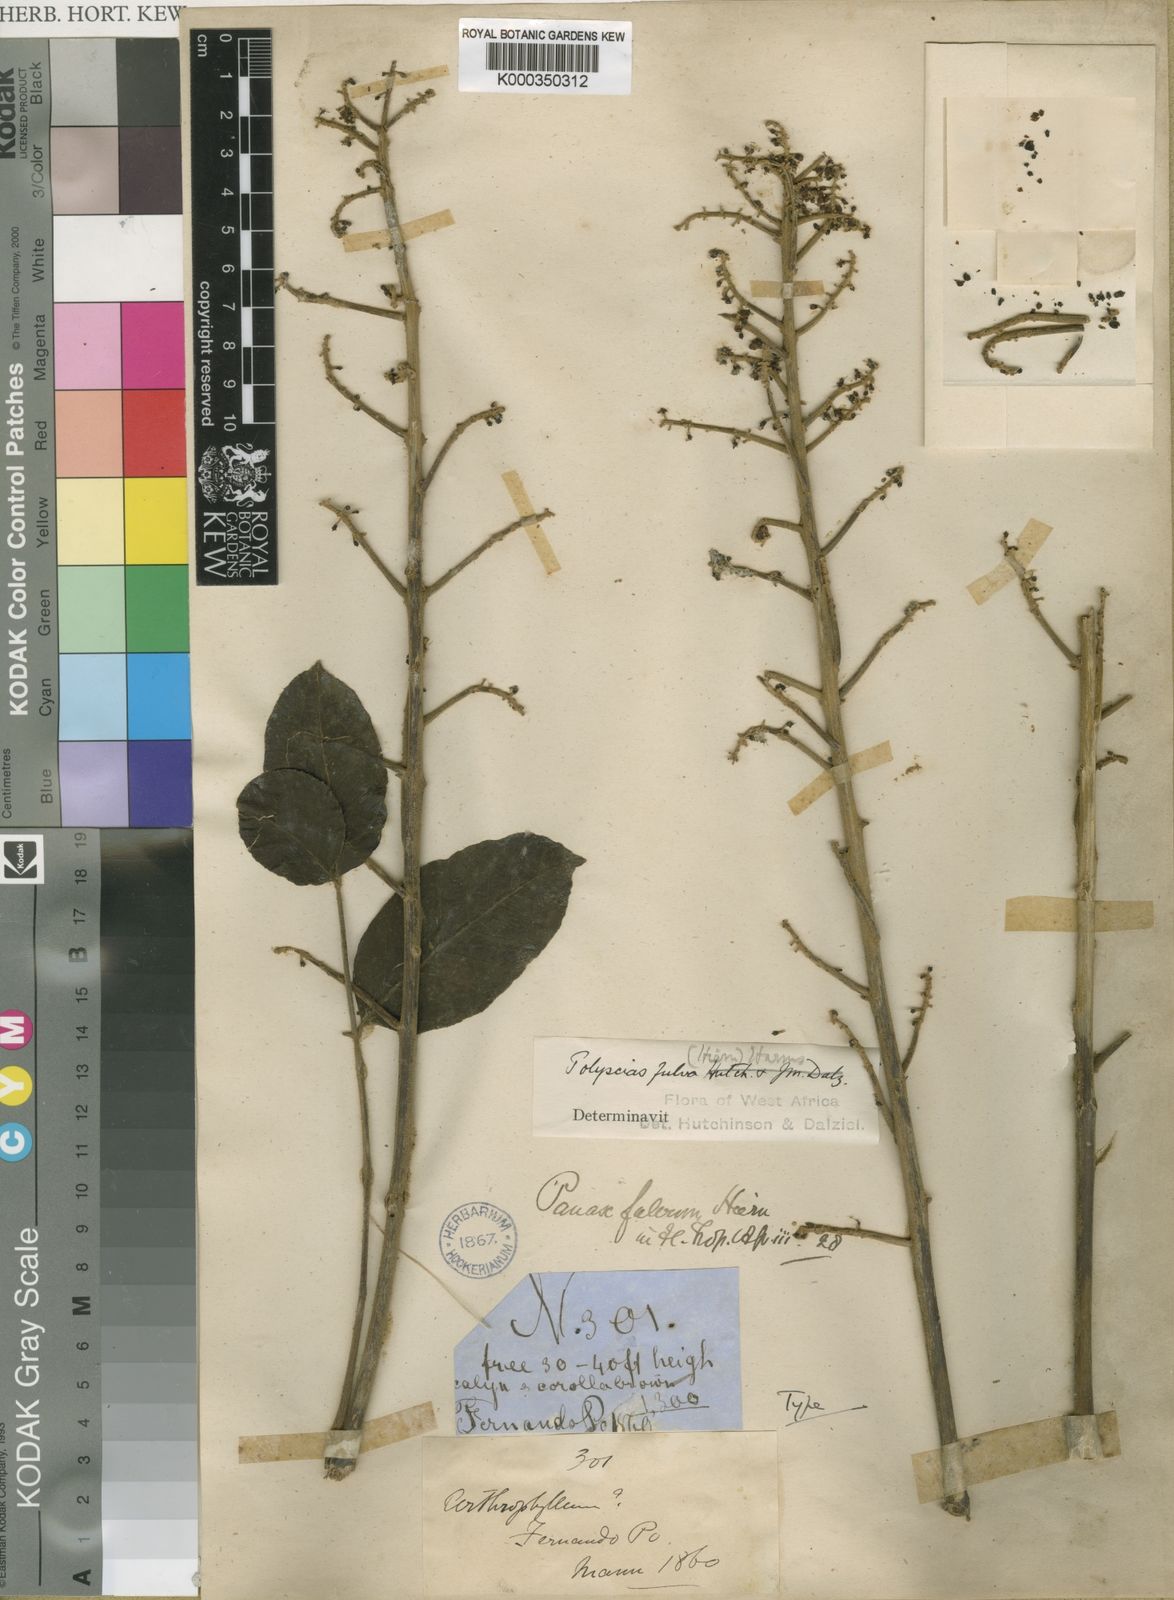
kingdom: Plantae
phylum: Tracheophyta
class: Magnoliopsida
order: Apiales
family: Araliaceae
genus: Polyscias
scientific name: Polyscias fulva
